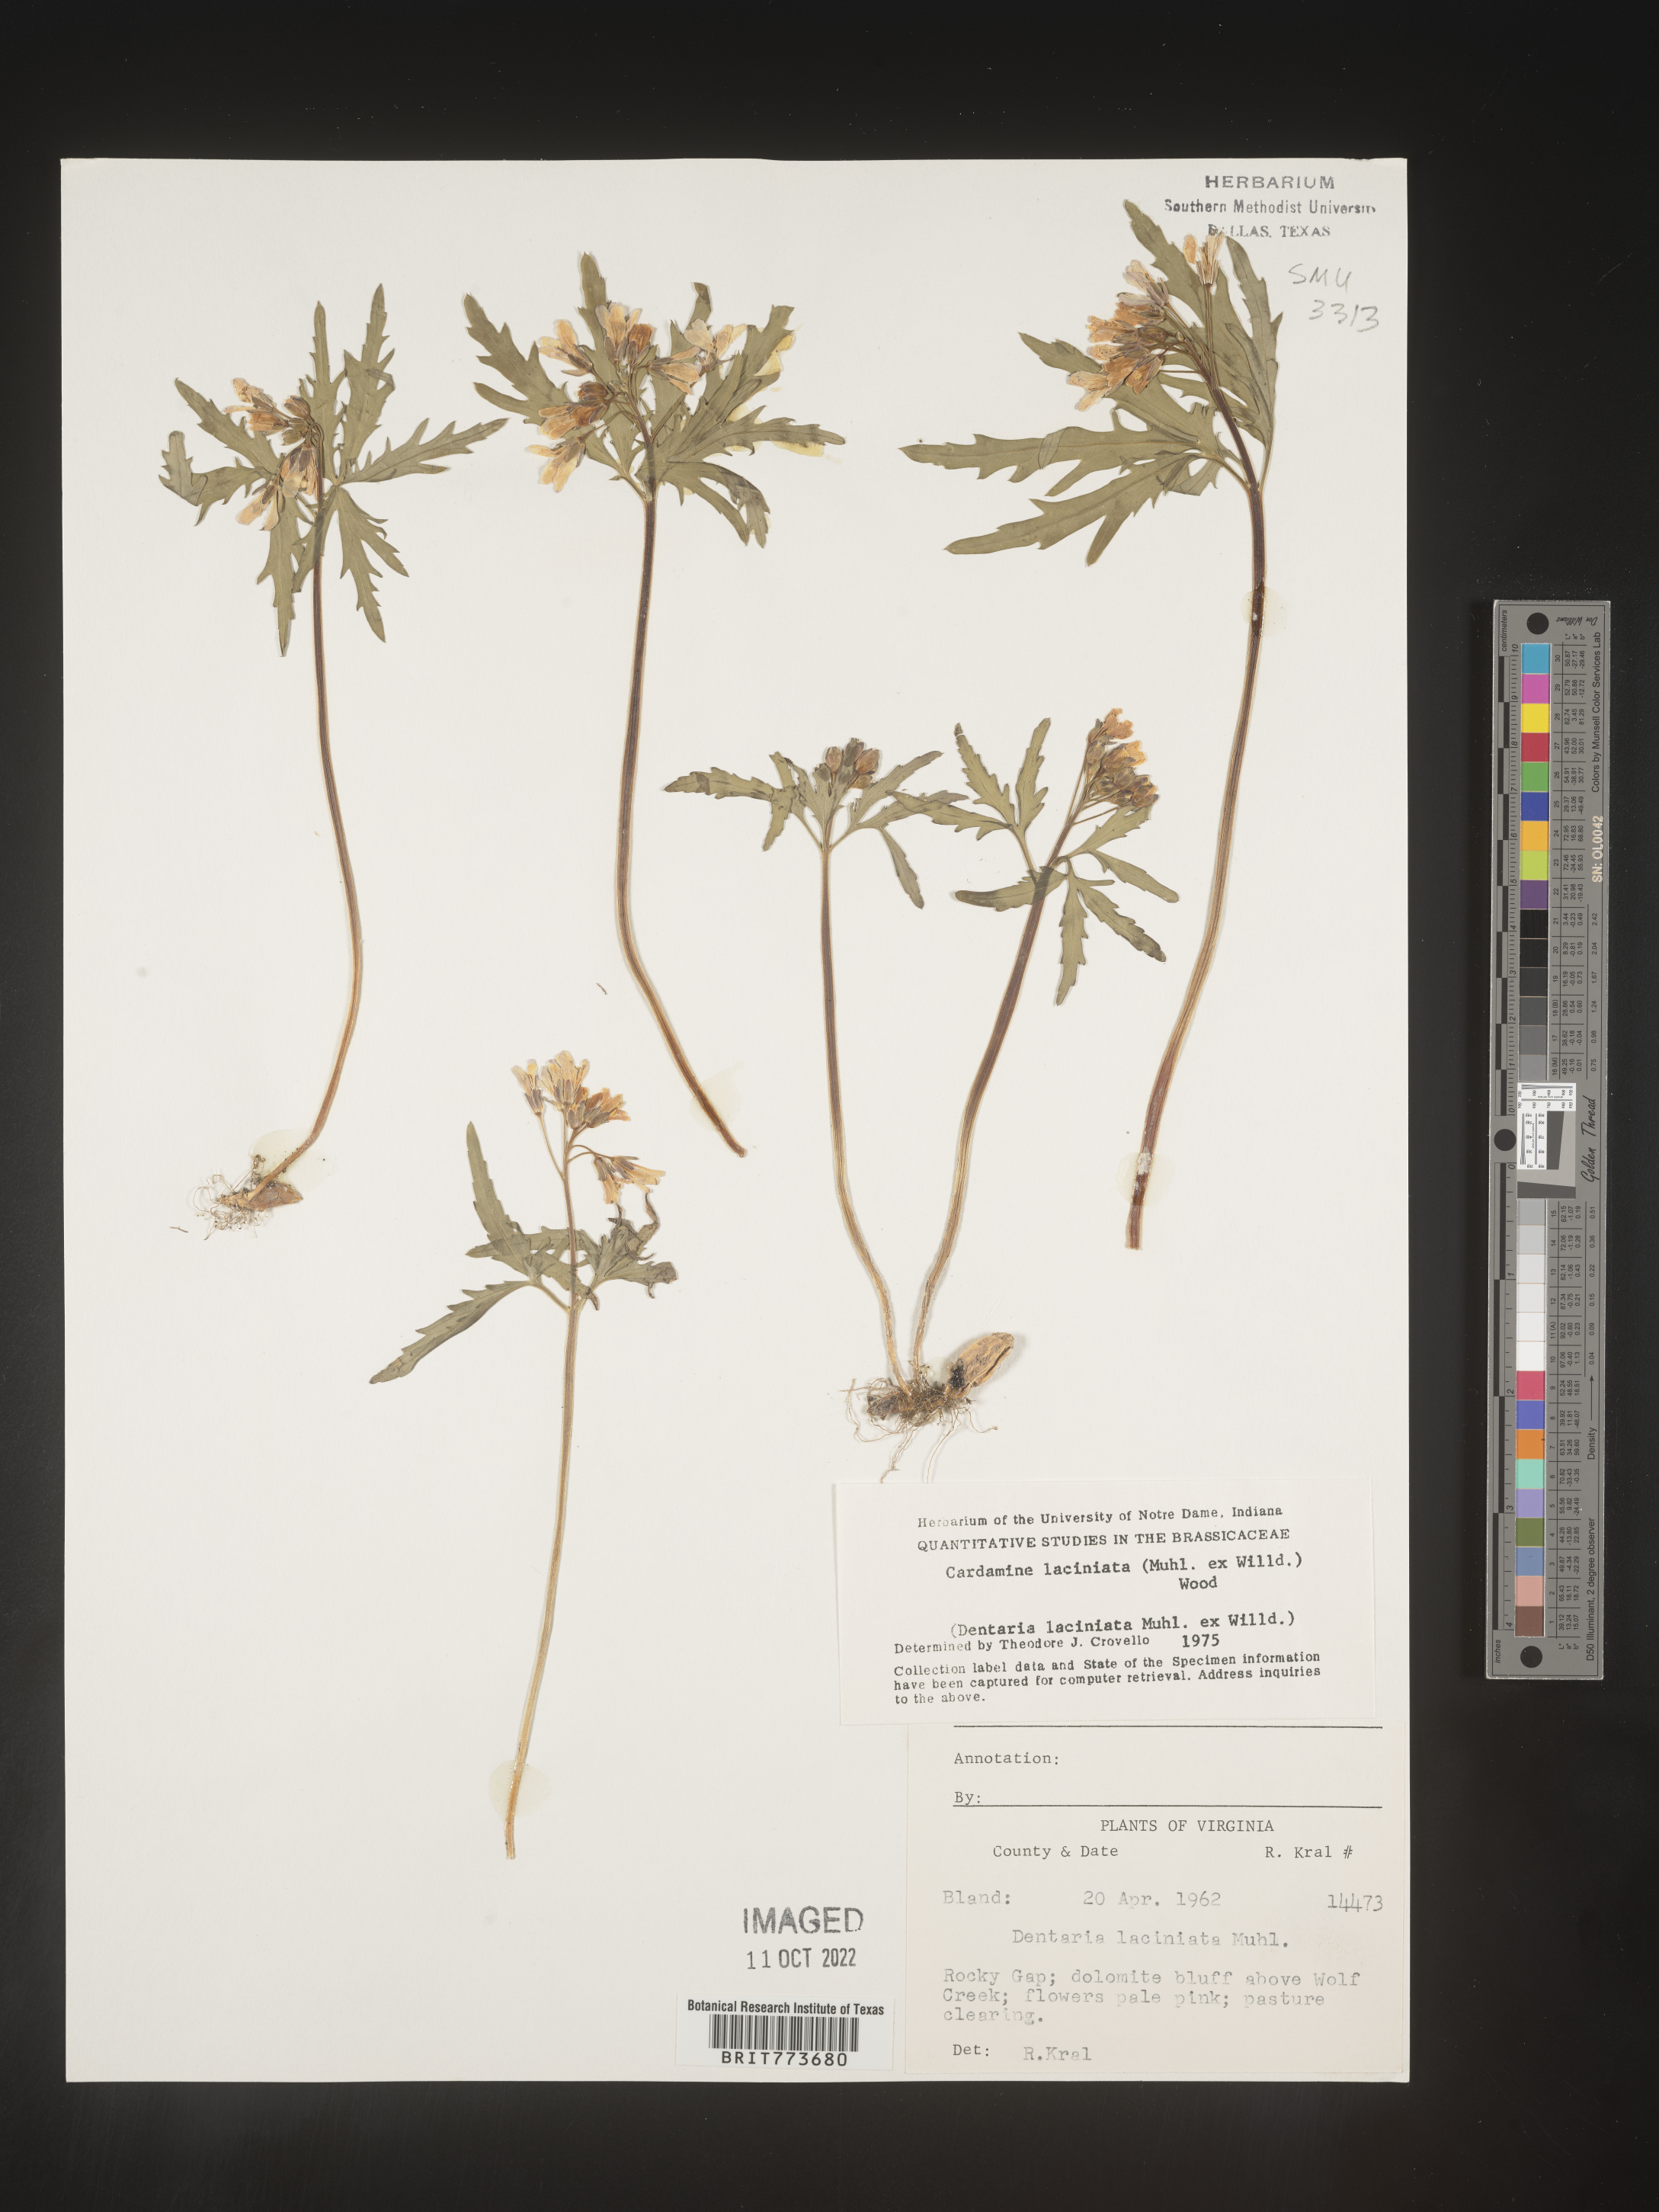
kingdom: Plantae
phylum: Tracheophyta
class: Magnoliopsida
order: Brassicales
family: Brassicaceae
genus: Rorippa
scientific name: Rorippa laciniata
